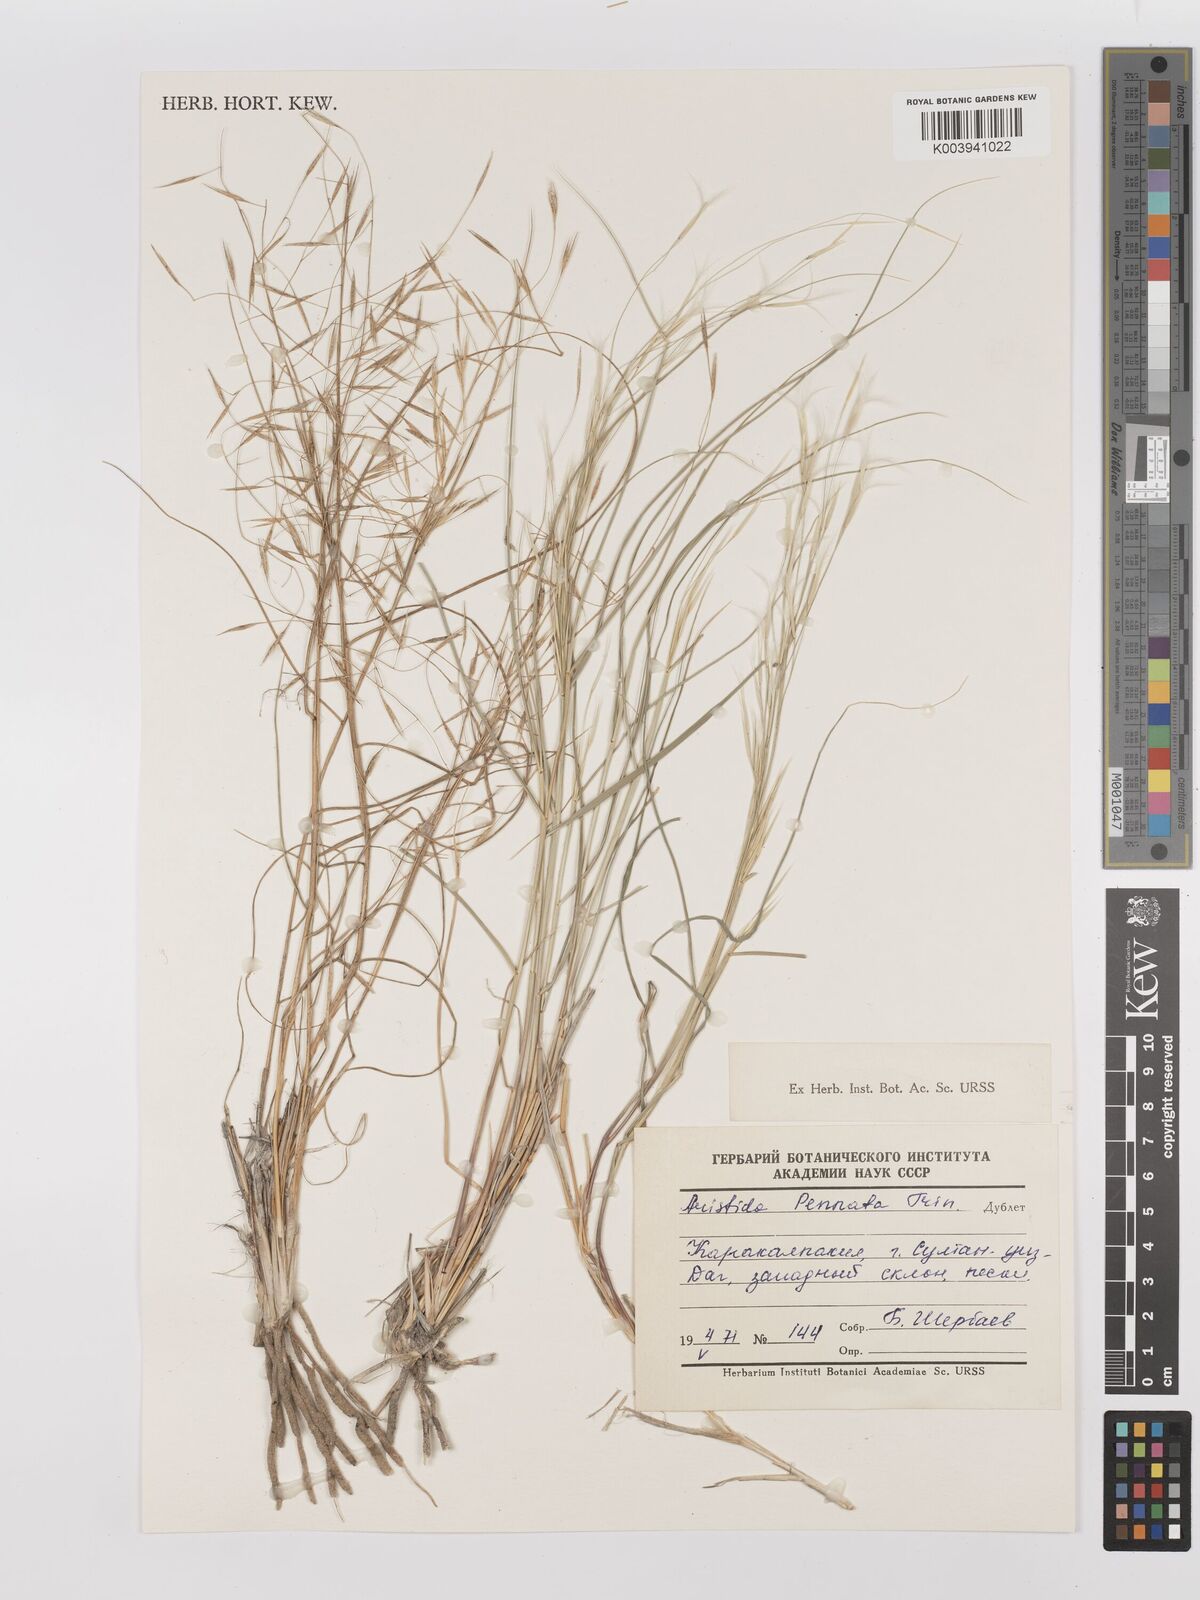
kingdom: Plantae
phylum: Tracheophyta
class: Liliopsida
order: Poales
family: Poaceae
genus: Stipagrostis
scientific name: Stipagrostis pennata
